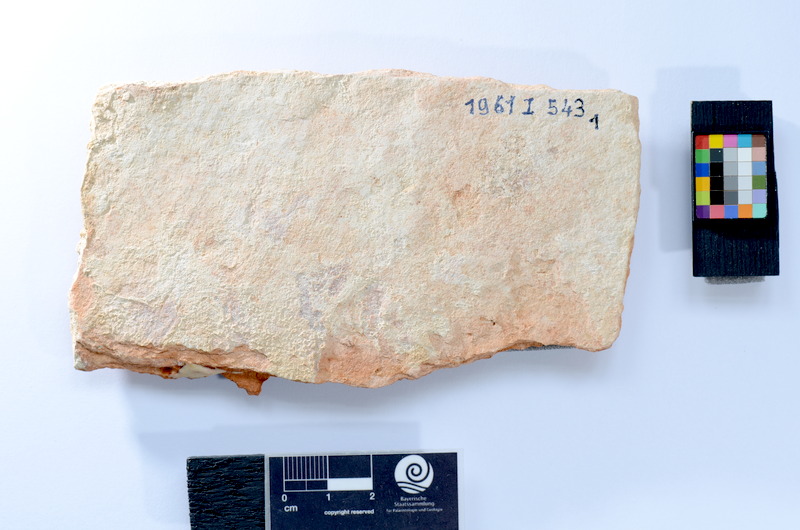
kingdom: Animalia
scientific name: Animalia
